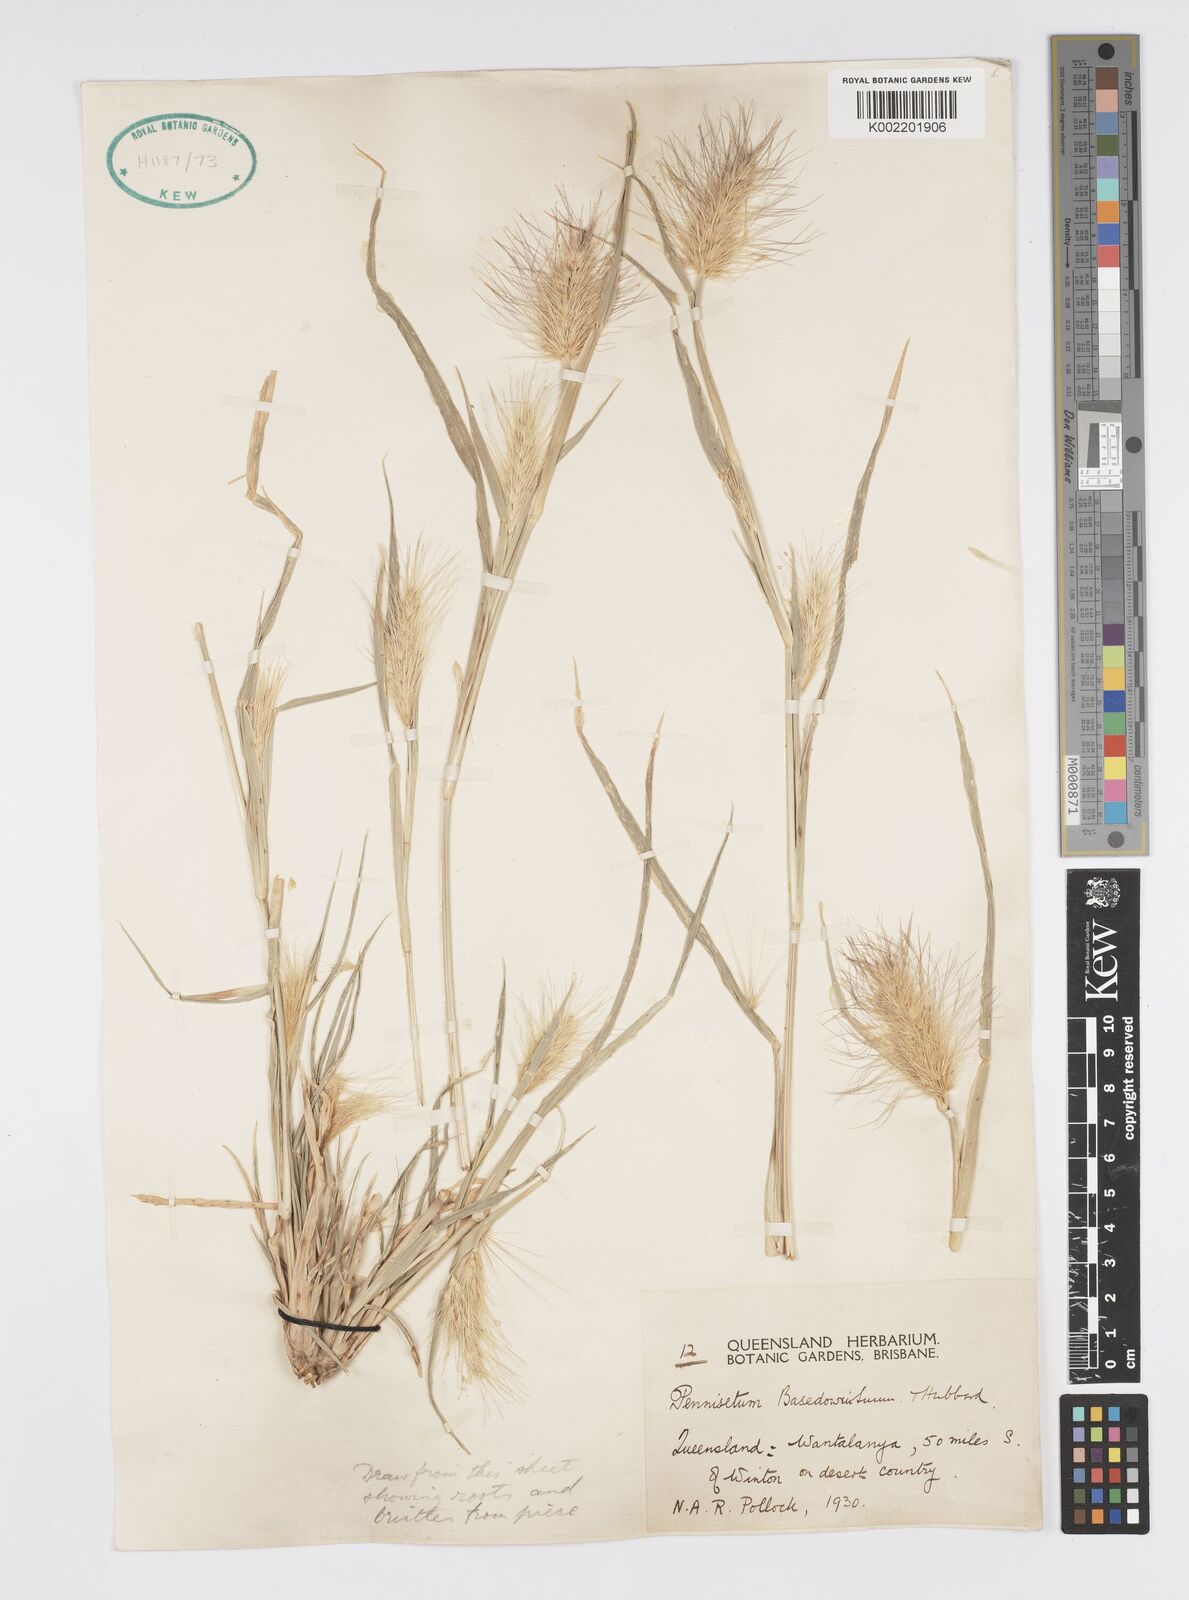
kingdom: Plantae
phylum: Tracheophyta
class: Liliopsida
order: Poales
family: Poaceae
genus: Cenchrus
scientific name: Cenchrus basedowii
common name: Asbestos grass
